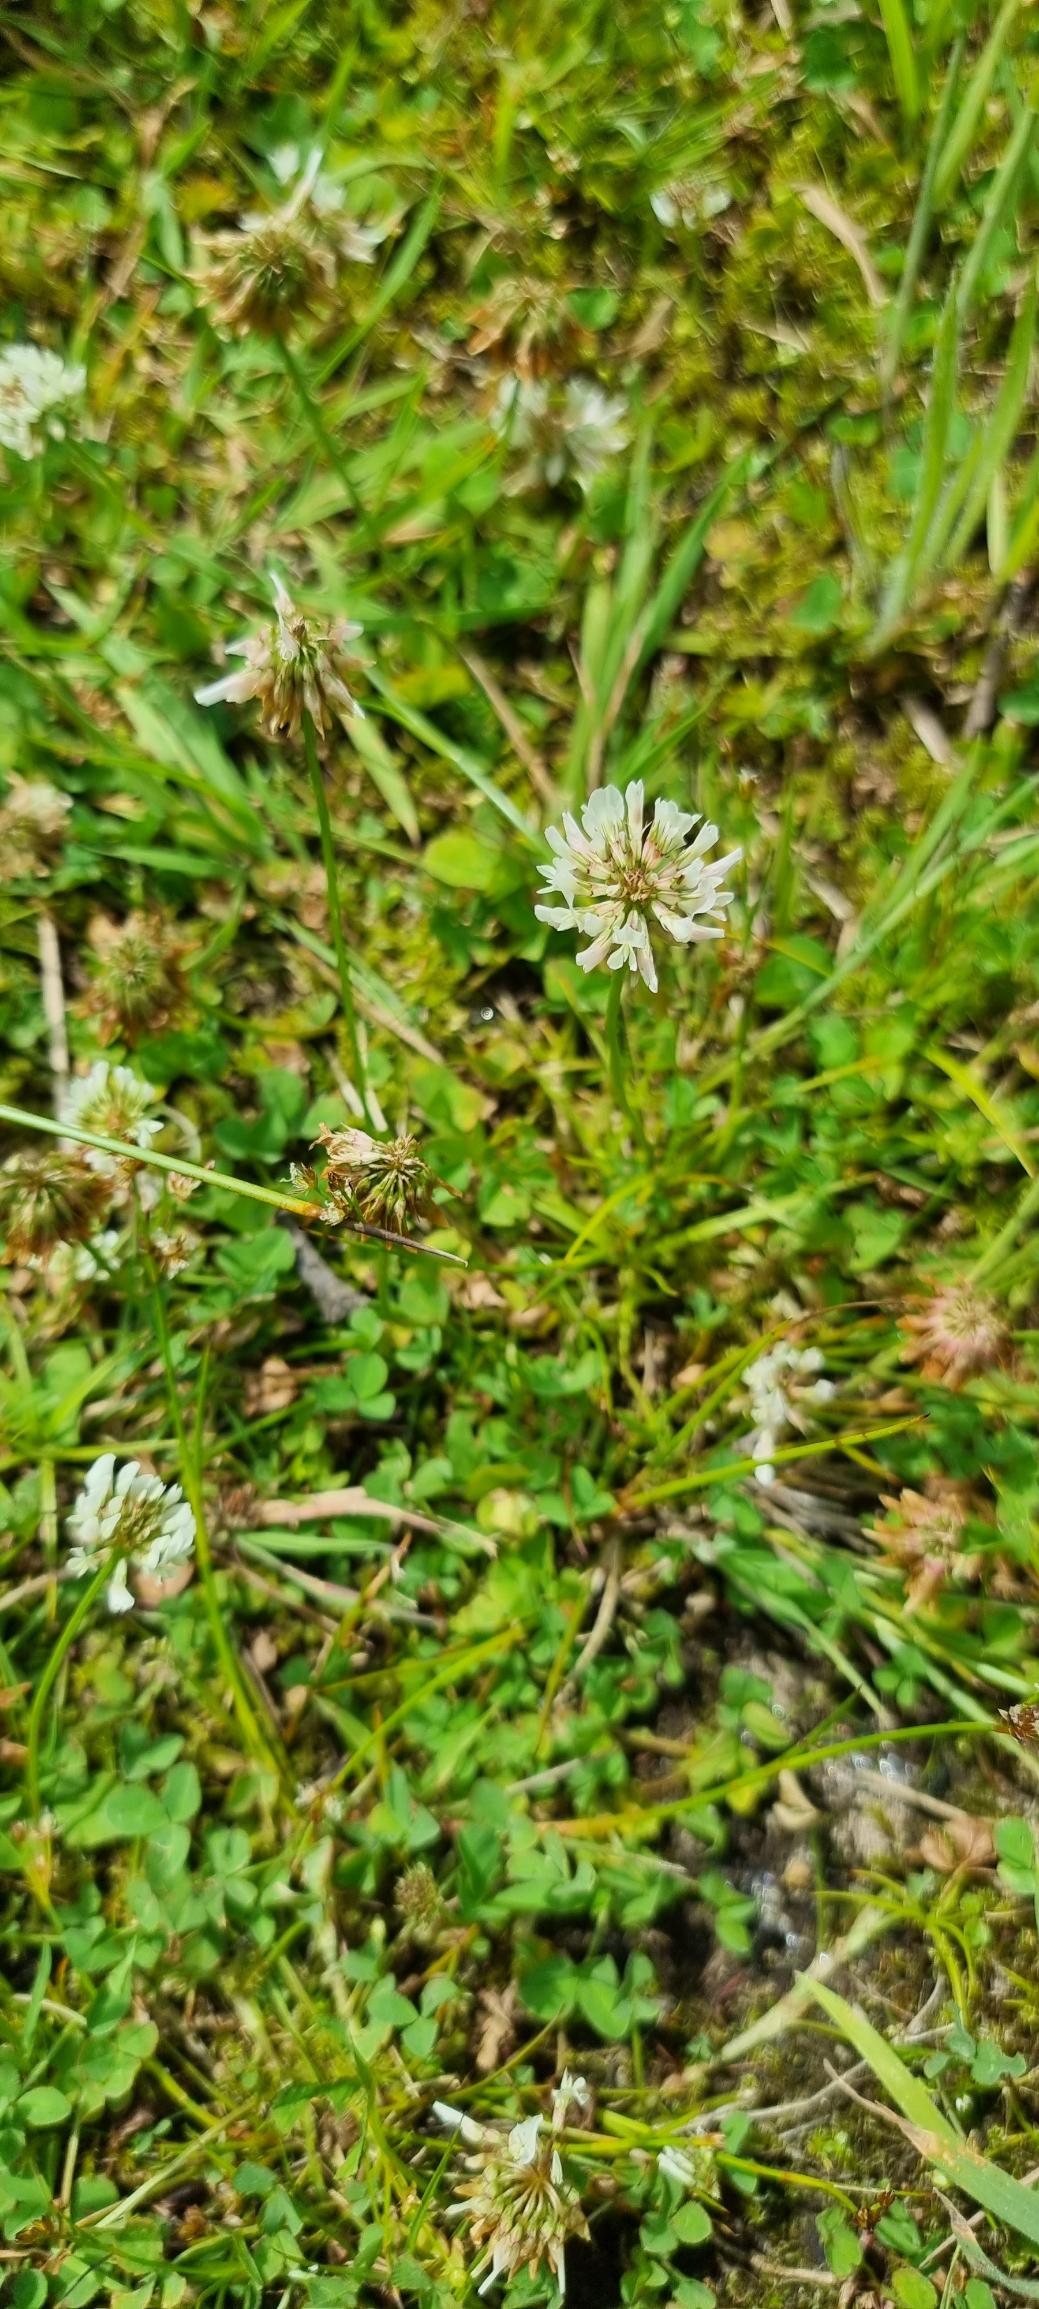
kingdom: Plantae
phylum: Tracheophyta
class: Magnoliopsida
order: Fabales
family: Fabaceae
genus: Trifolium
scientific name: Trifolium repens
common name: Hvid-kløver
